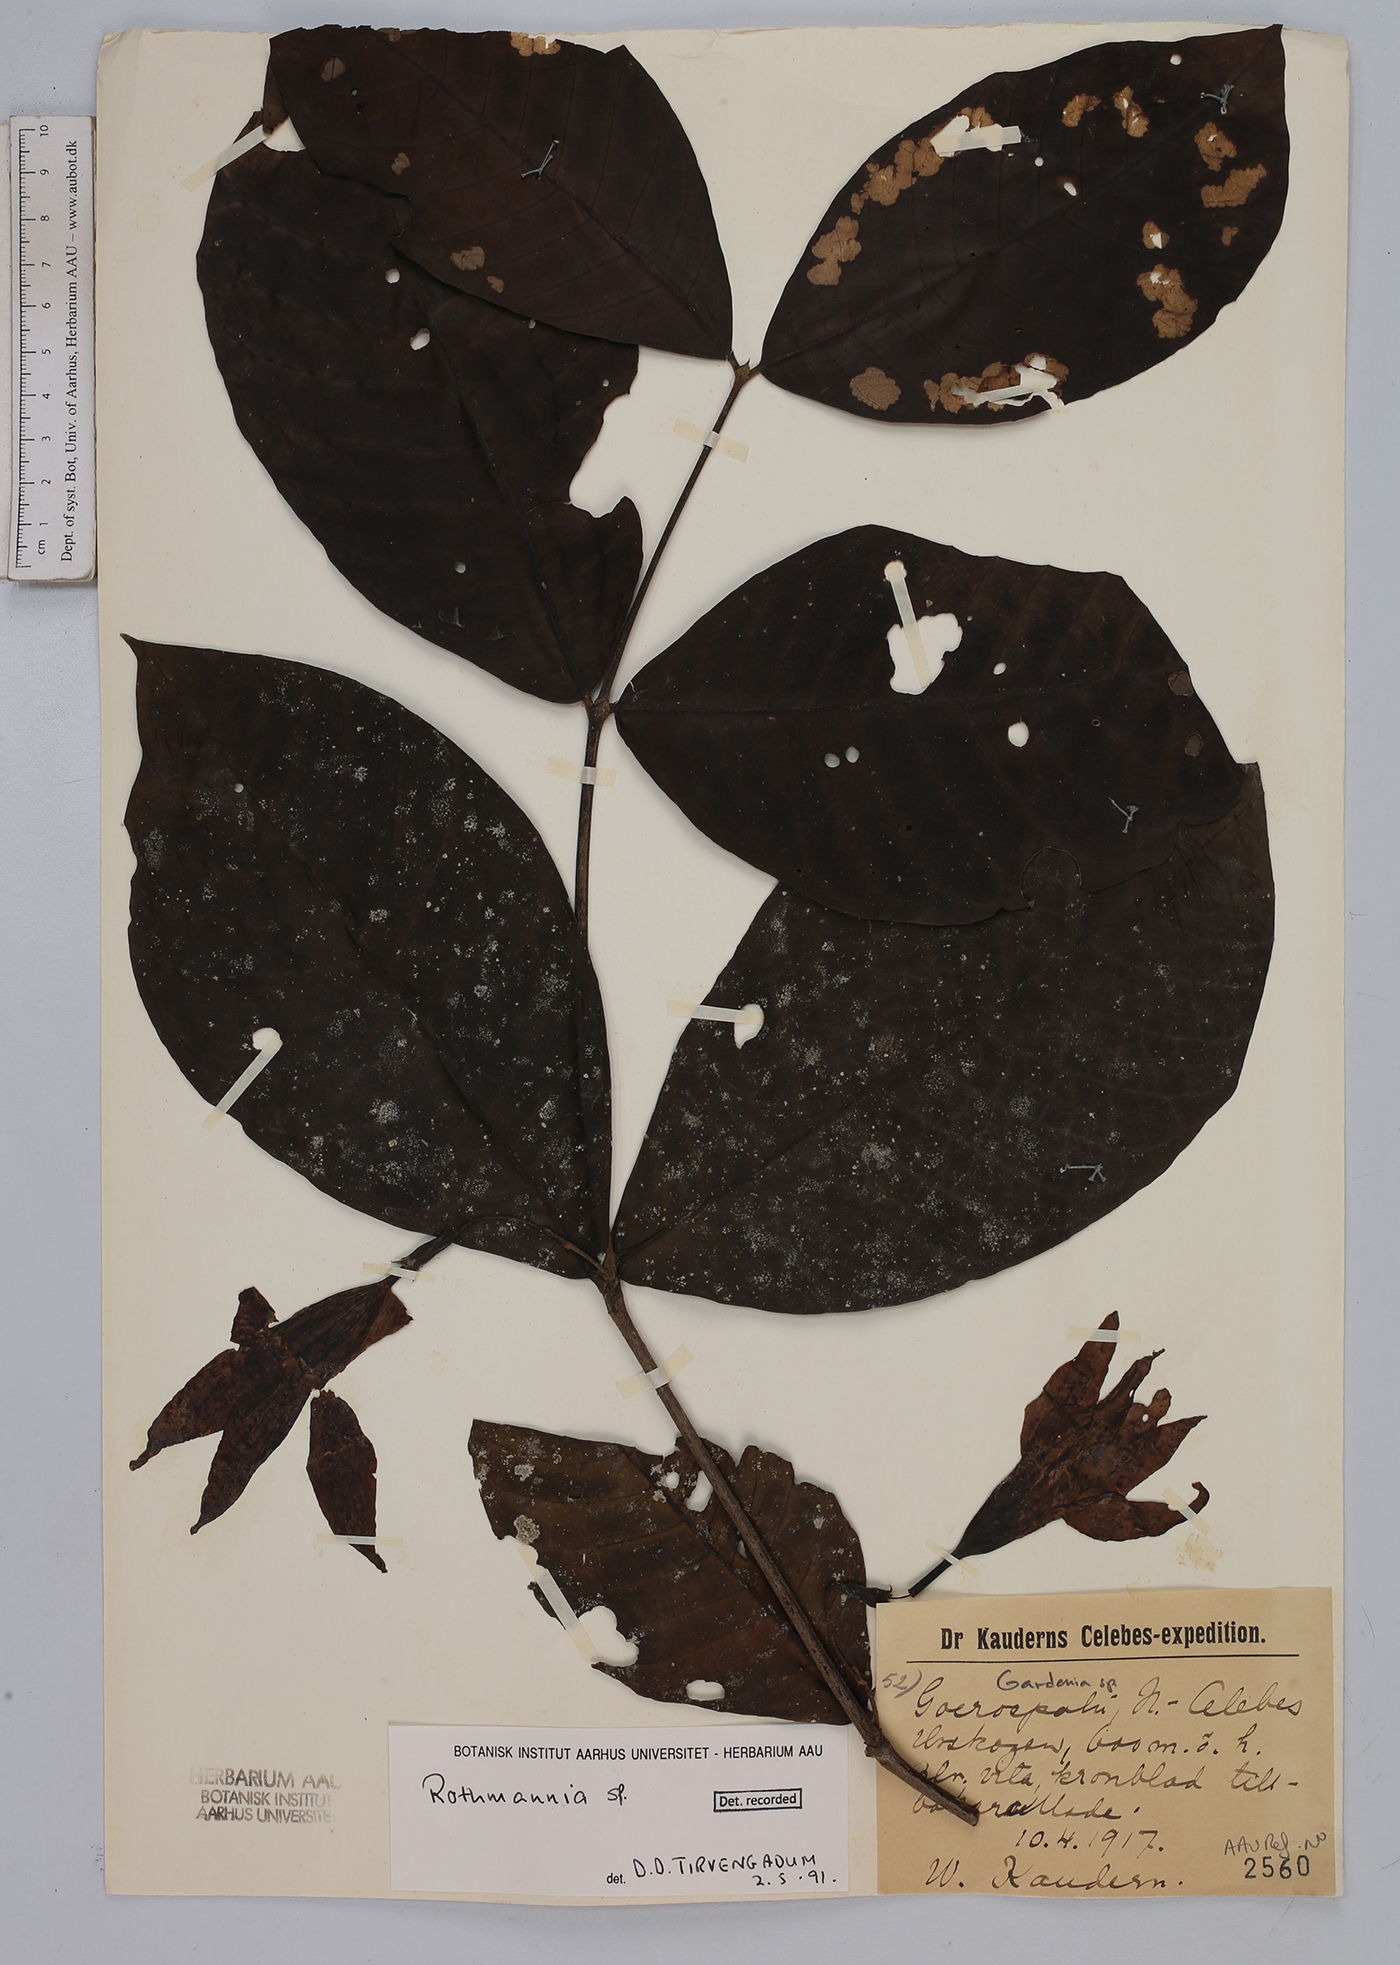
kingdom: Plantae
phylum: Tracheophyta
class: Magnoliopsida
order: Gentianales
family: Rubiaceae
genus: Rothmannia
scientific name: Rothmannia
